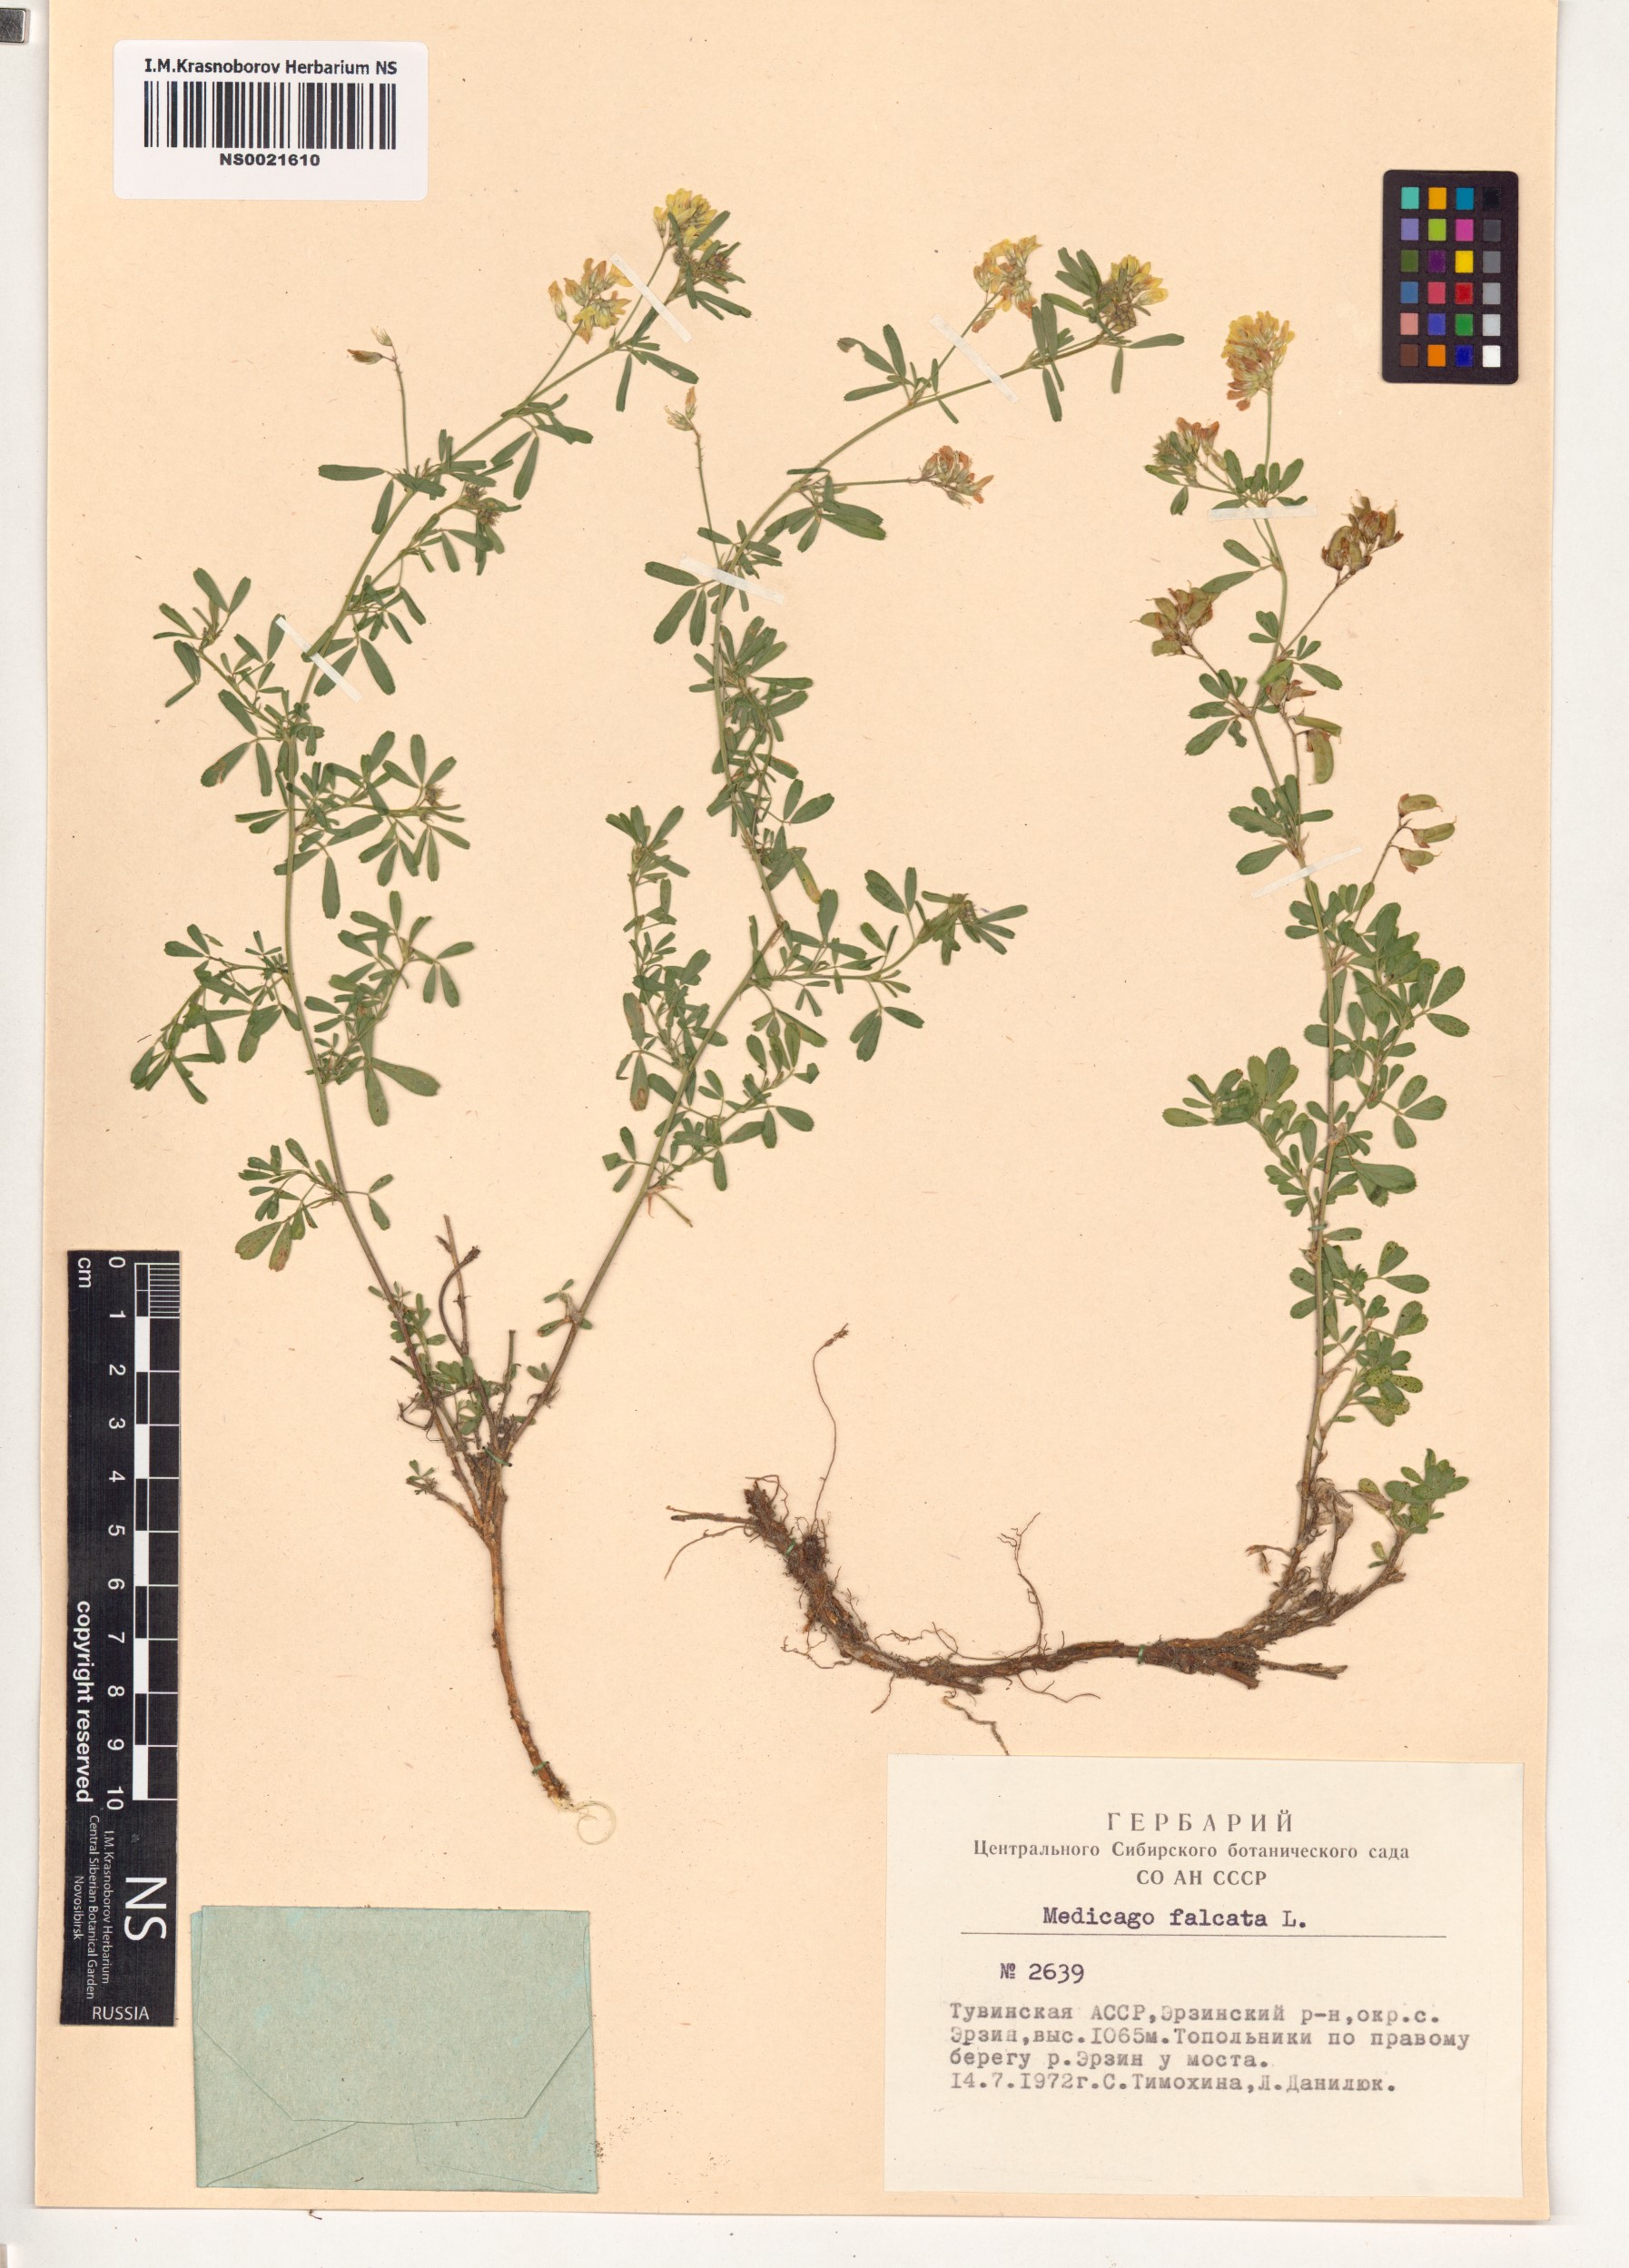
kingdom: Plantae
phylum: Tracheophyta
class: Magnoliopsida
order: Fabales
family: Fabaceae
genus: Medicago
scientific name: Medicago falcata
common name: Sickle medick
